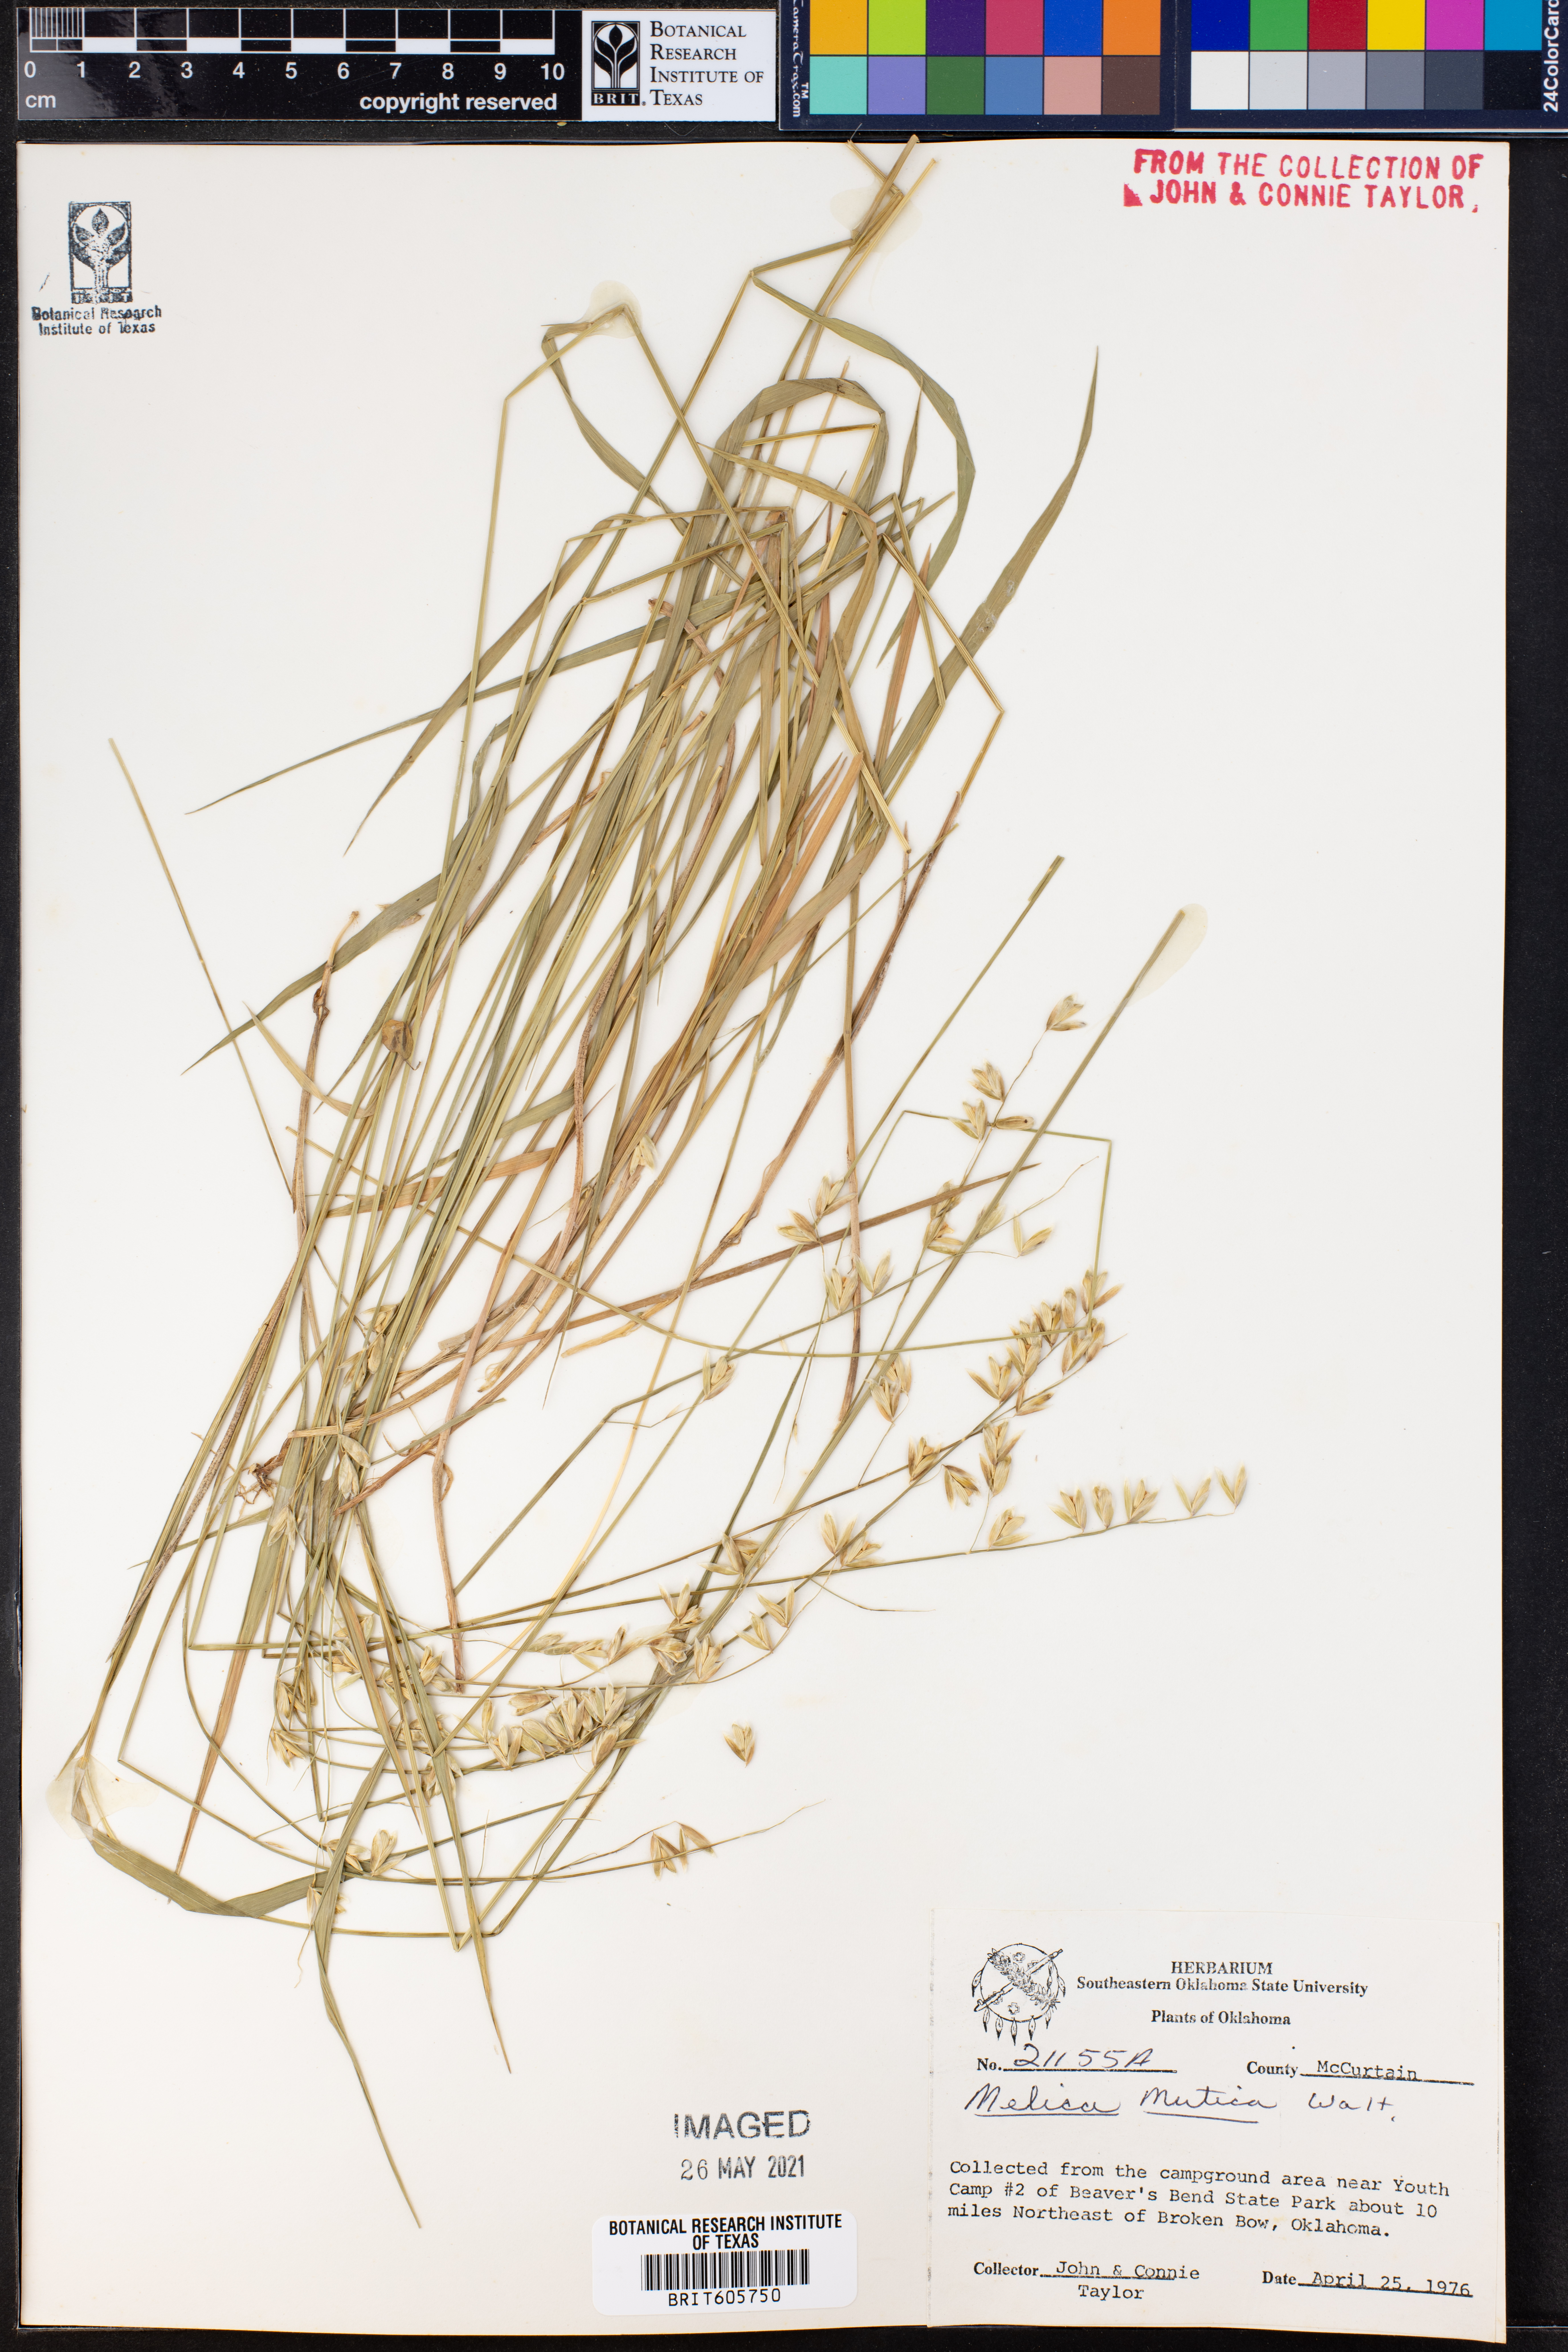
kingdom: Plantae
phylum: Tracheophyta
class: Liliopsida
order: Poales
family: Poaceae
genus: Melica
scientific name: Melica mutica
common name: Two-flower melic
